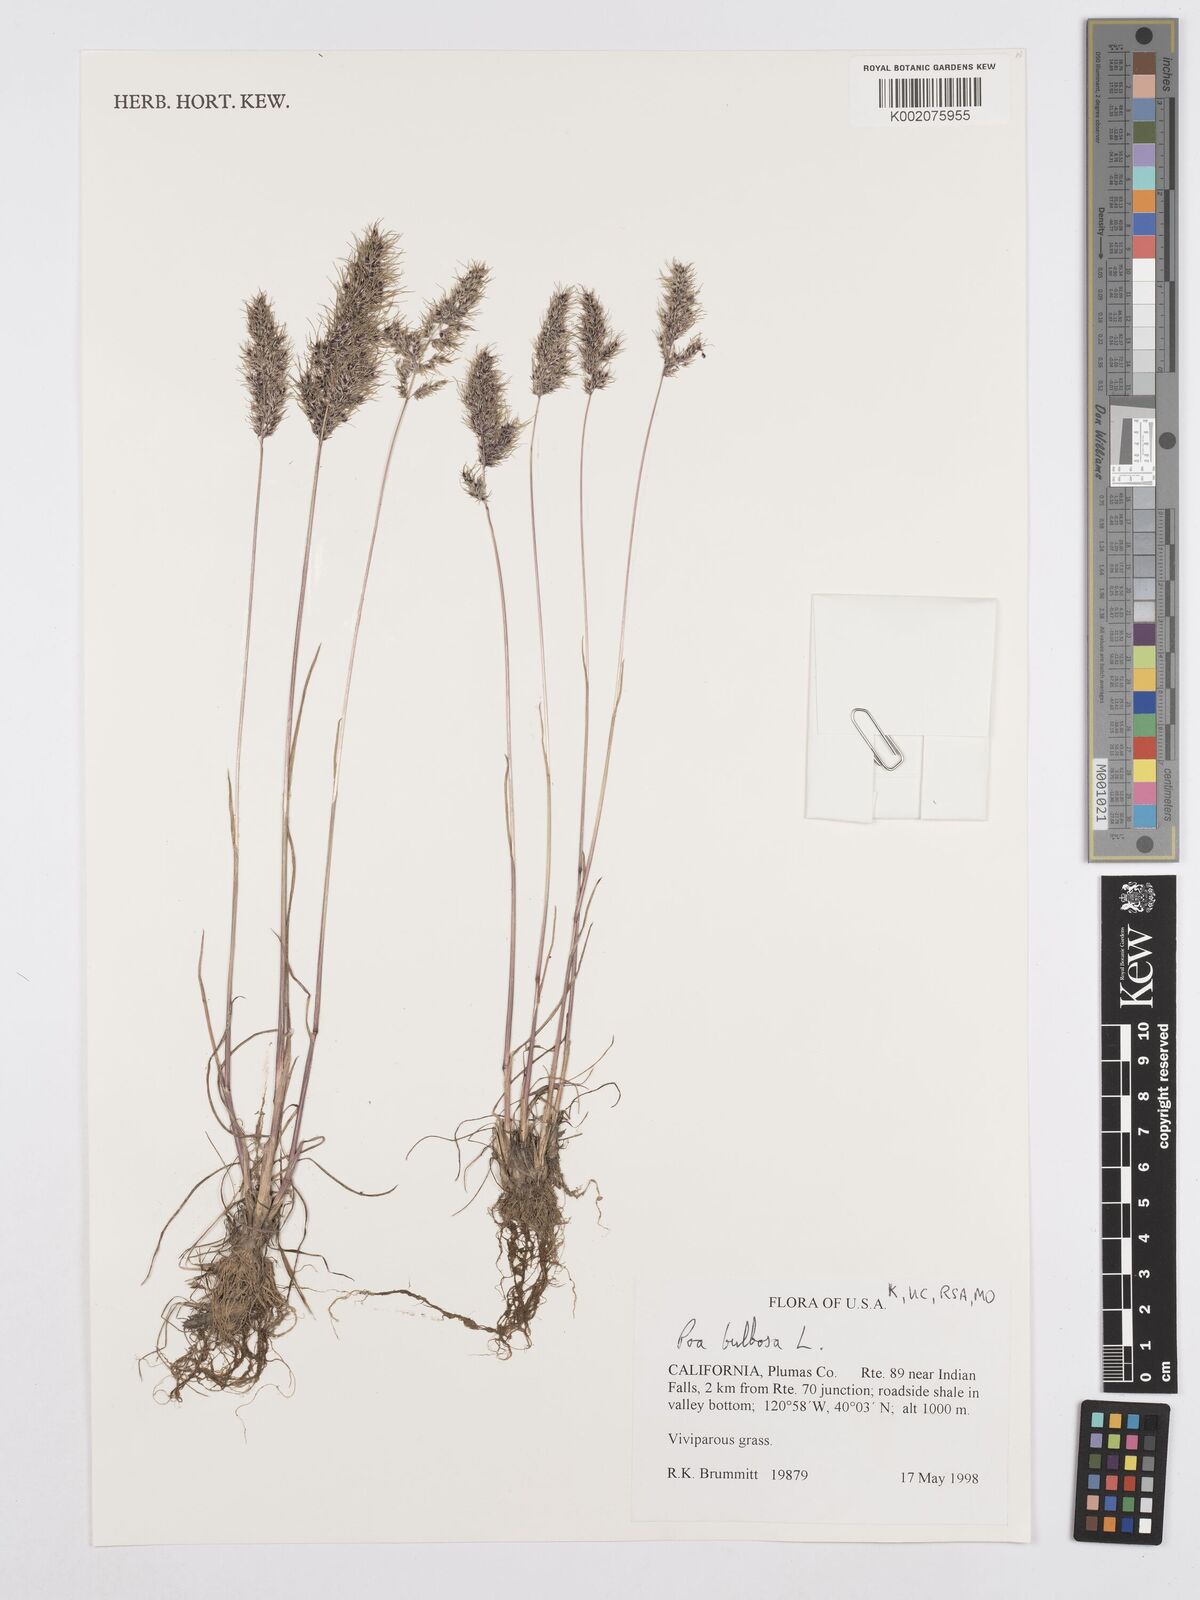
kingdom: Plantae
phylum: Tracheophyta
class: Liliopsida
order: Poales
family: Poaceae
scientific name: Poaceae
